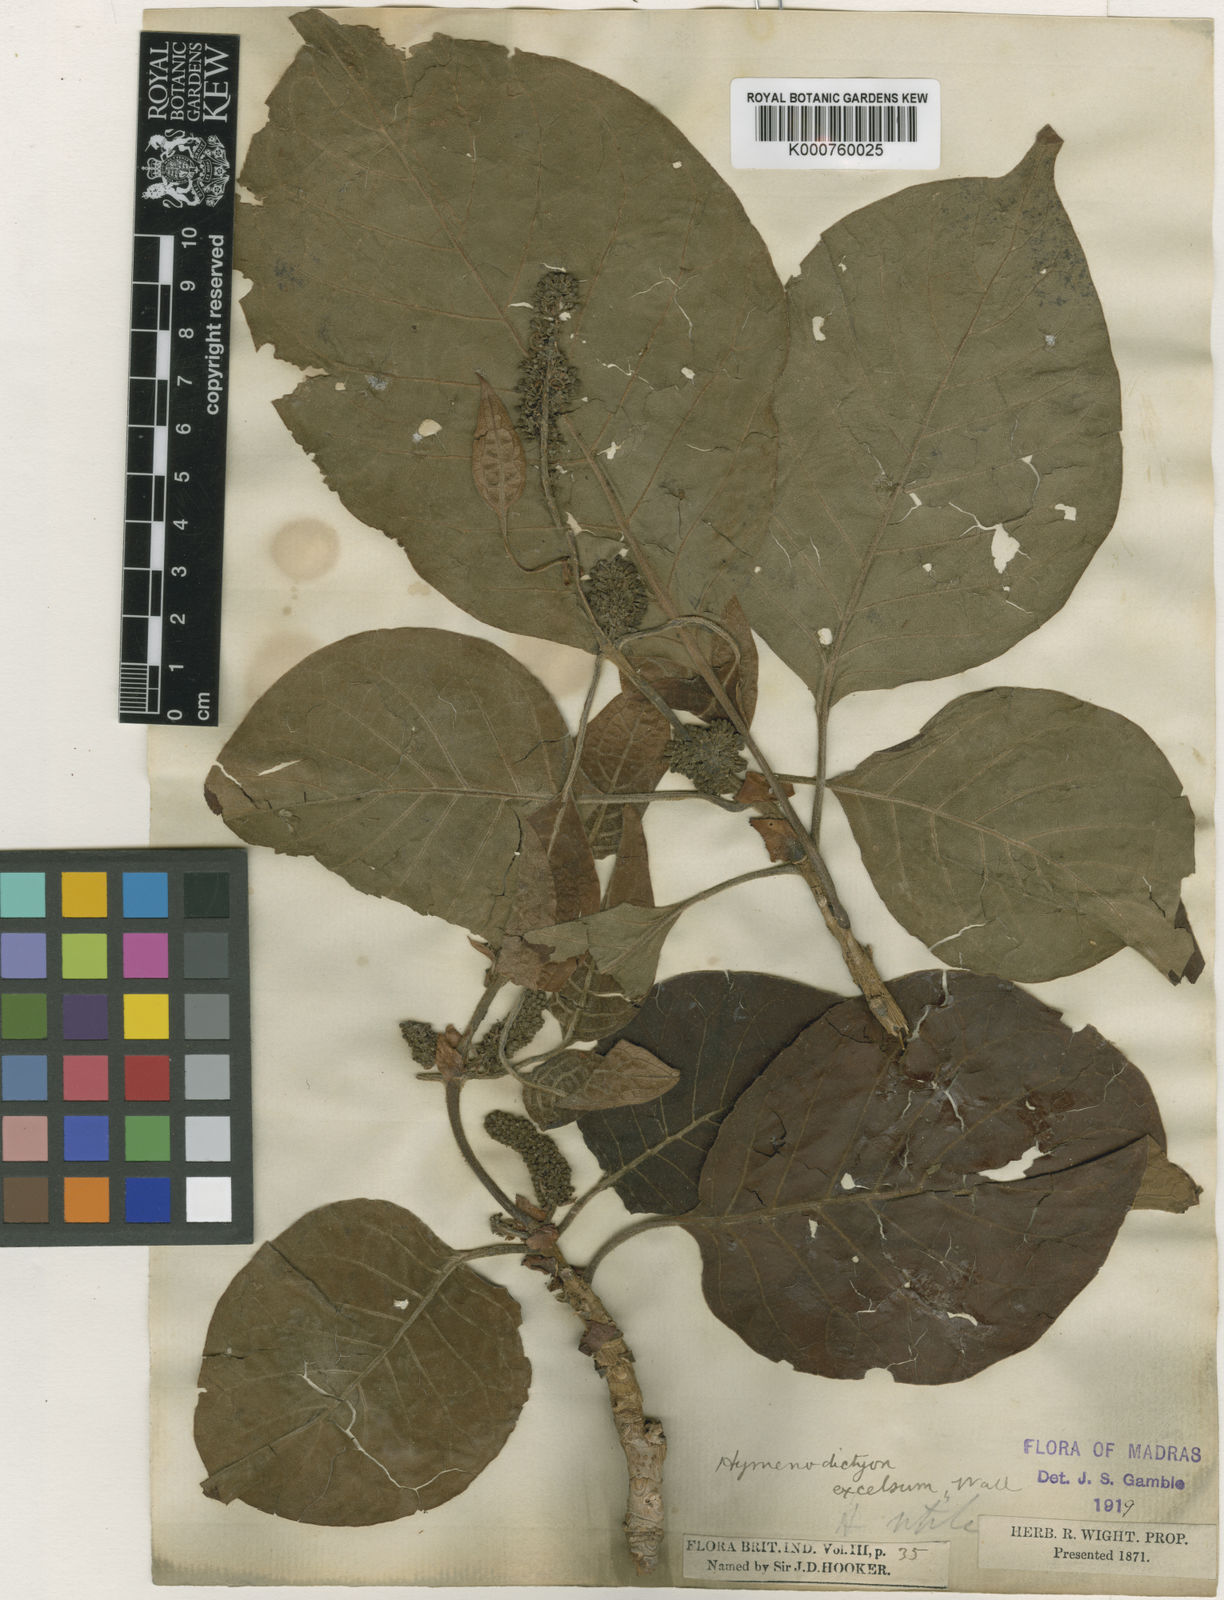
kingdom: Plantae
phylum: Tracheophyta
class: Magnoliopsida
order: Gentianales
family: Rubiaceae
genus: Hymenodictyon
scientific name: Hymenodictyon orixense
